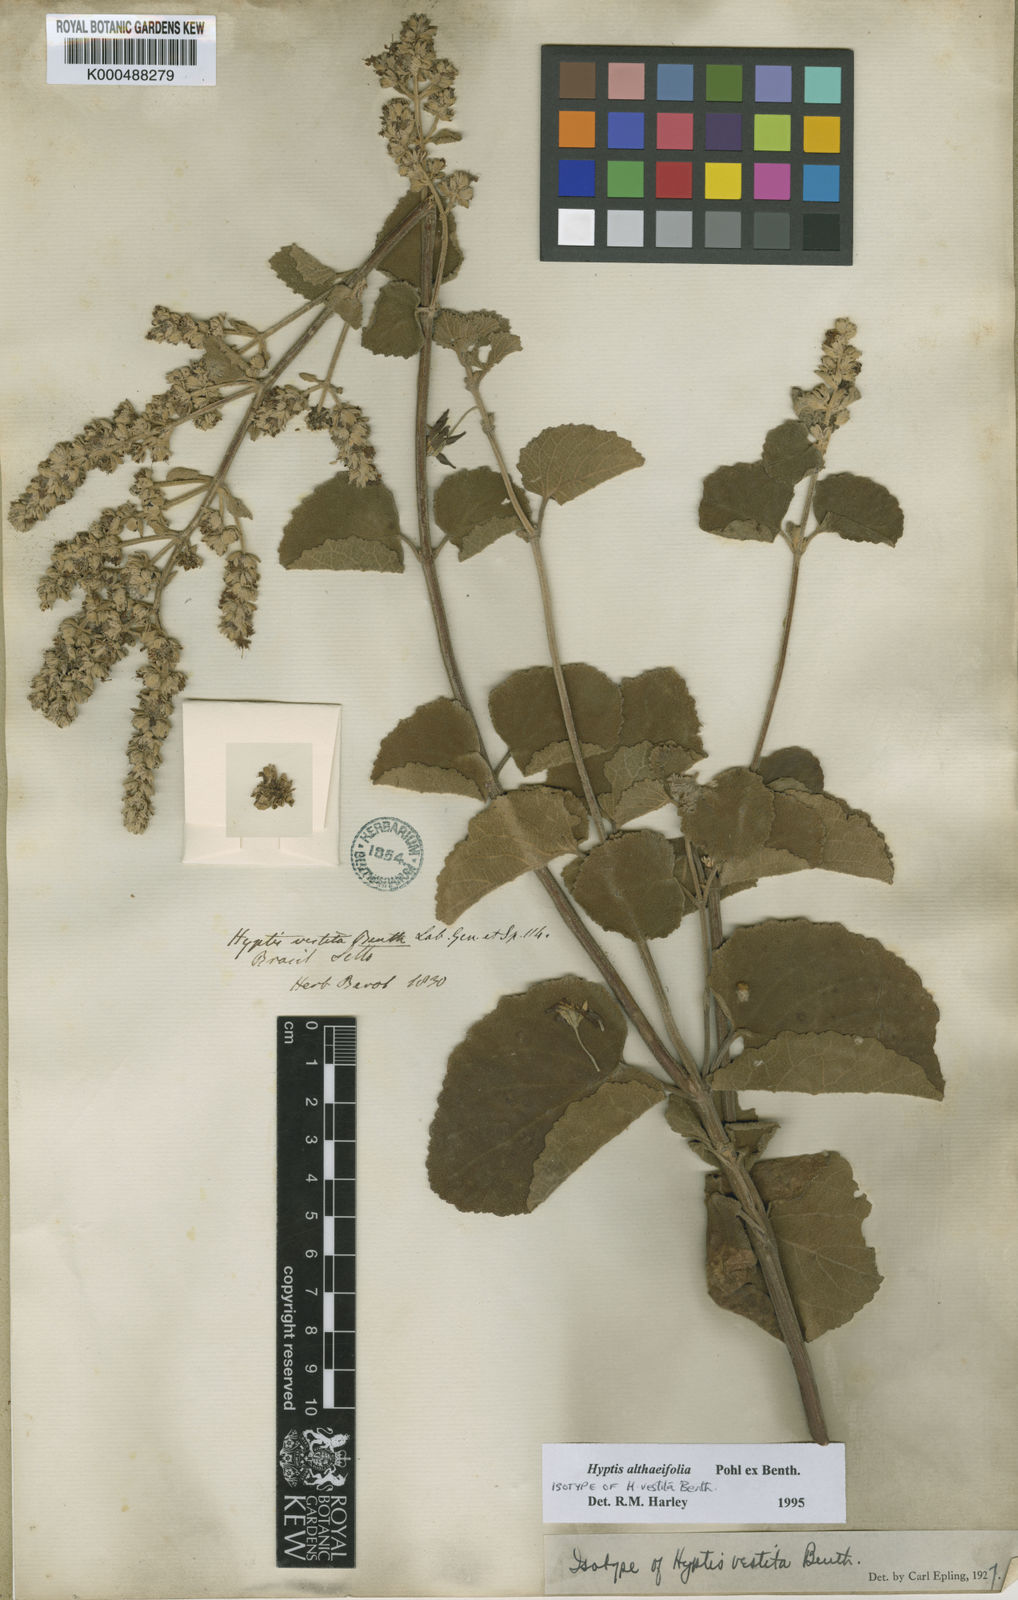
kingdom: Plantae
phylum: Tracheophyta
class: Magnoliopsida
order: Lamiales
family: Lamiaceae
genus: Cantinoa
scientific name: Cantinoa althaeifolia
